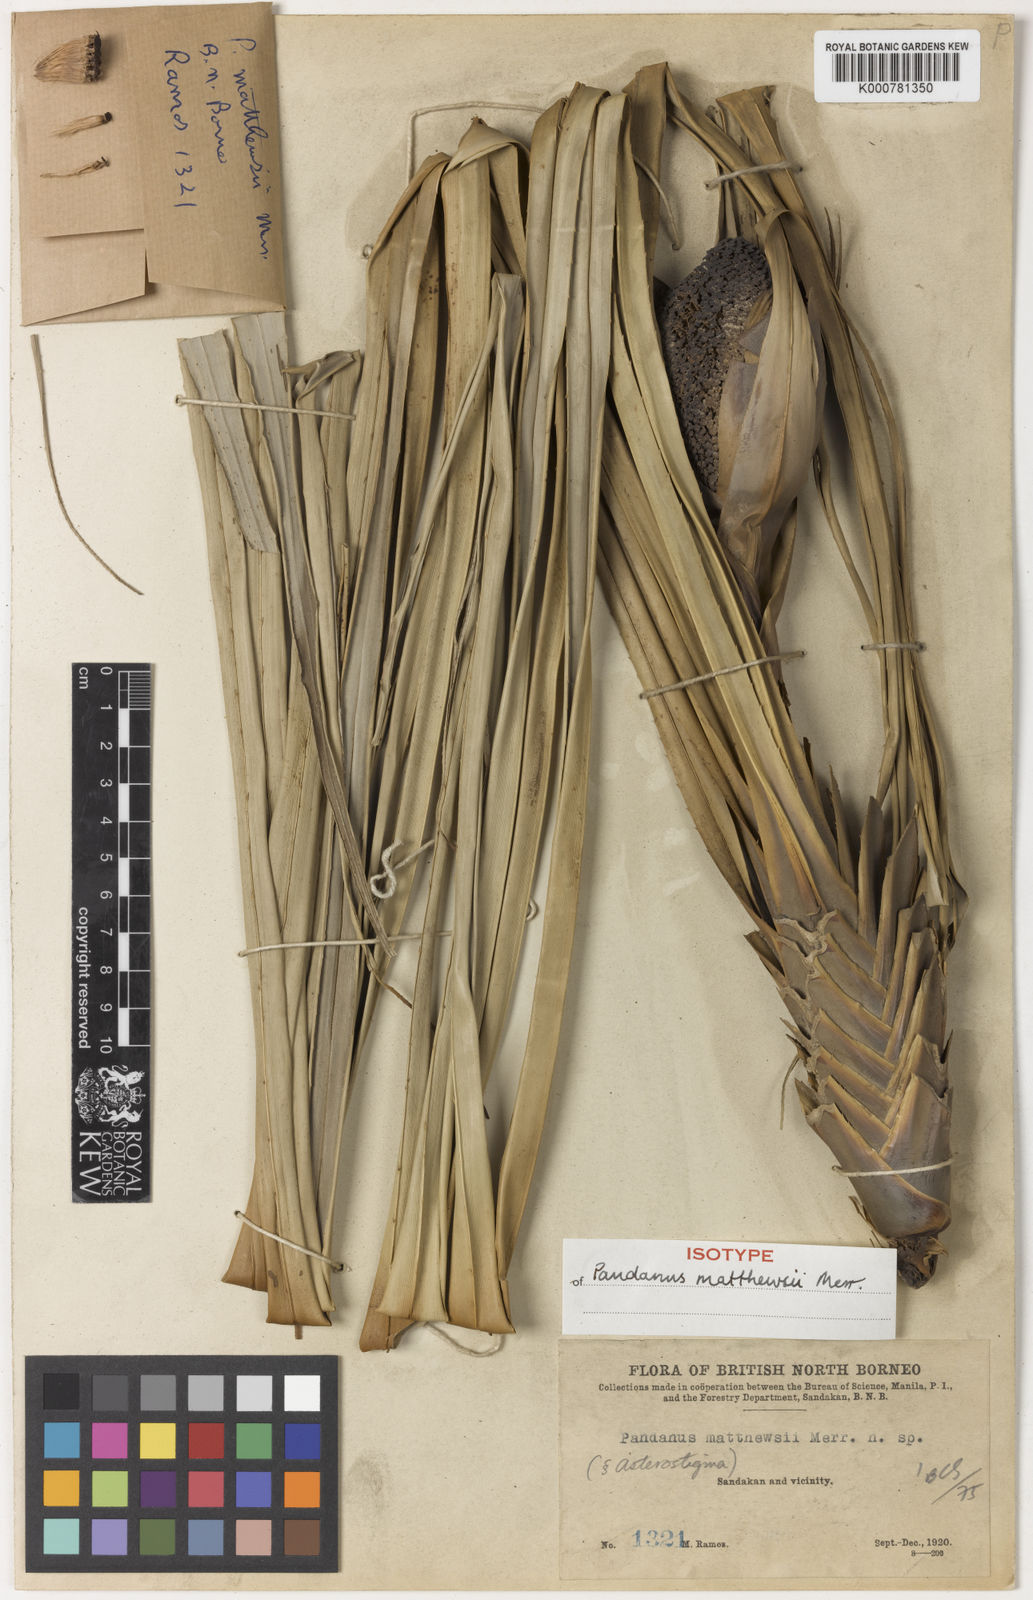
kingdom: Plantae
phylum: Tracheophyta
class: Liliopsida
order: Pandanales
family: Pandanaceae
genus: Pandanus
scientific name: Pandanus discostigma
